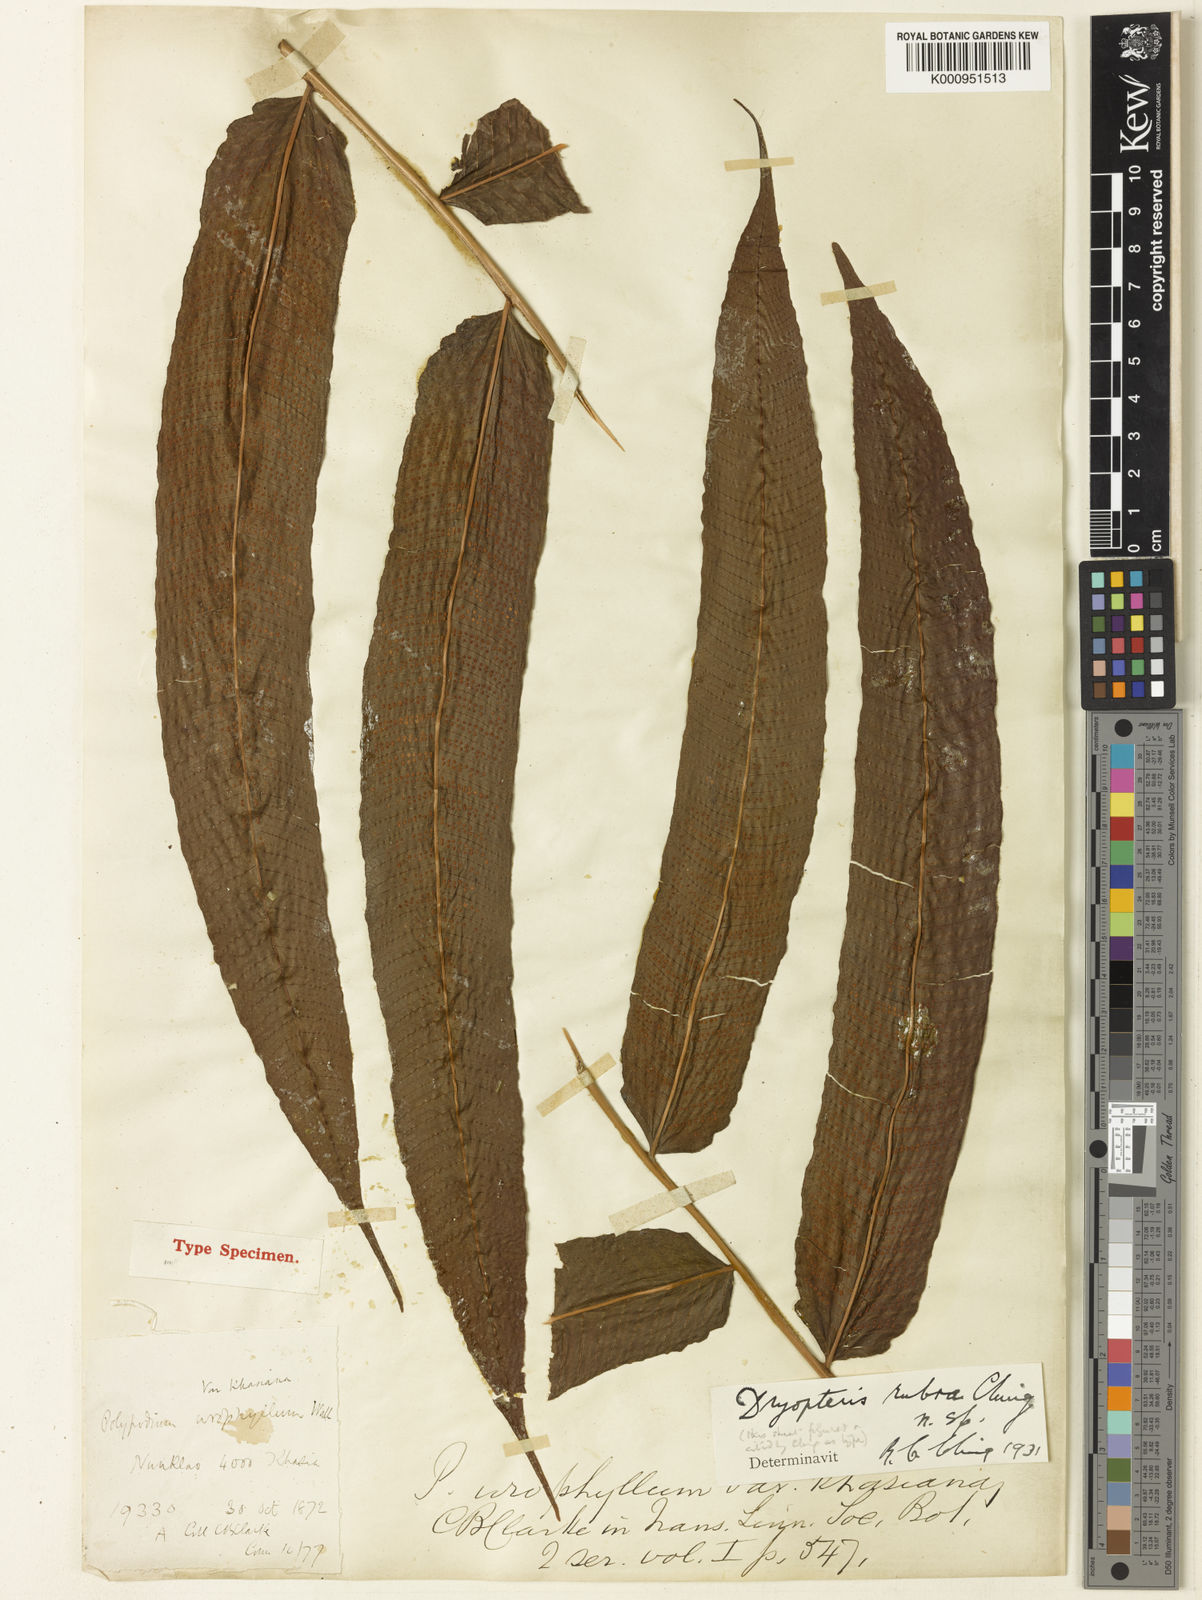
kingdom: Plantae
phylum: Tracheophyta
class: Polypodiopsida
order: Polypodiales
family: Thelypteridaceae
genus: Menisciopsis
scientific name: Menisciopsis lakhimpurensis
